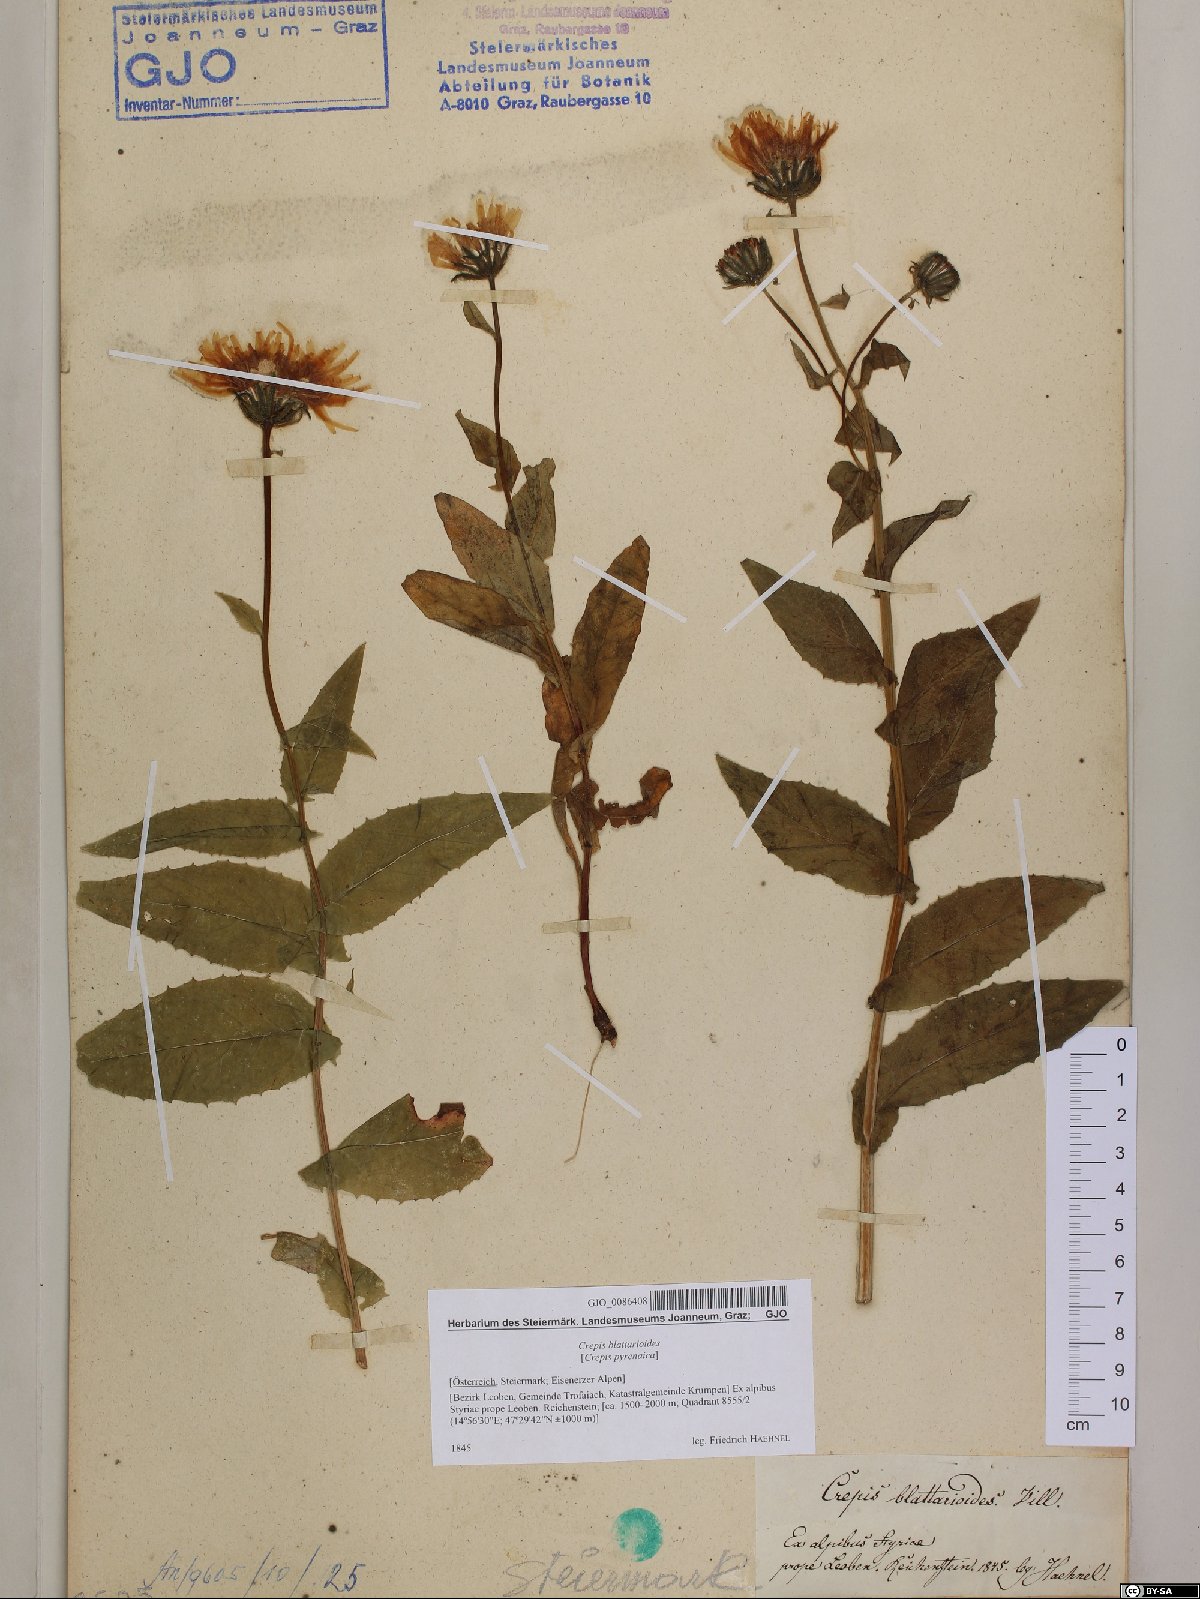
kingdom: Plantae
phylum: Tracheophyta
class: Magnoliopsida
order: Asterales
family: Asteraceae
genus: Crepis
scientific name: Crepis blattarioides
